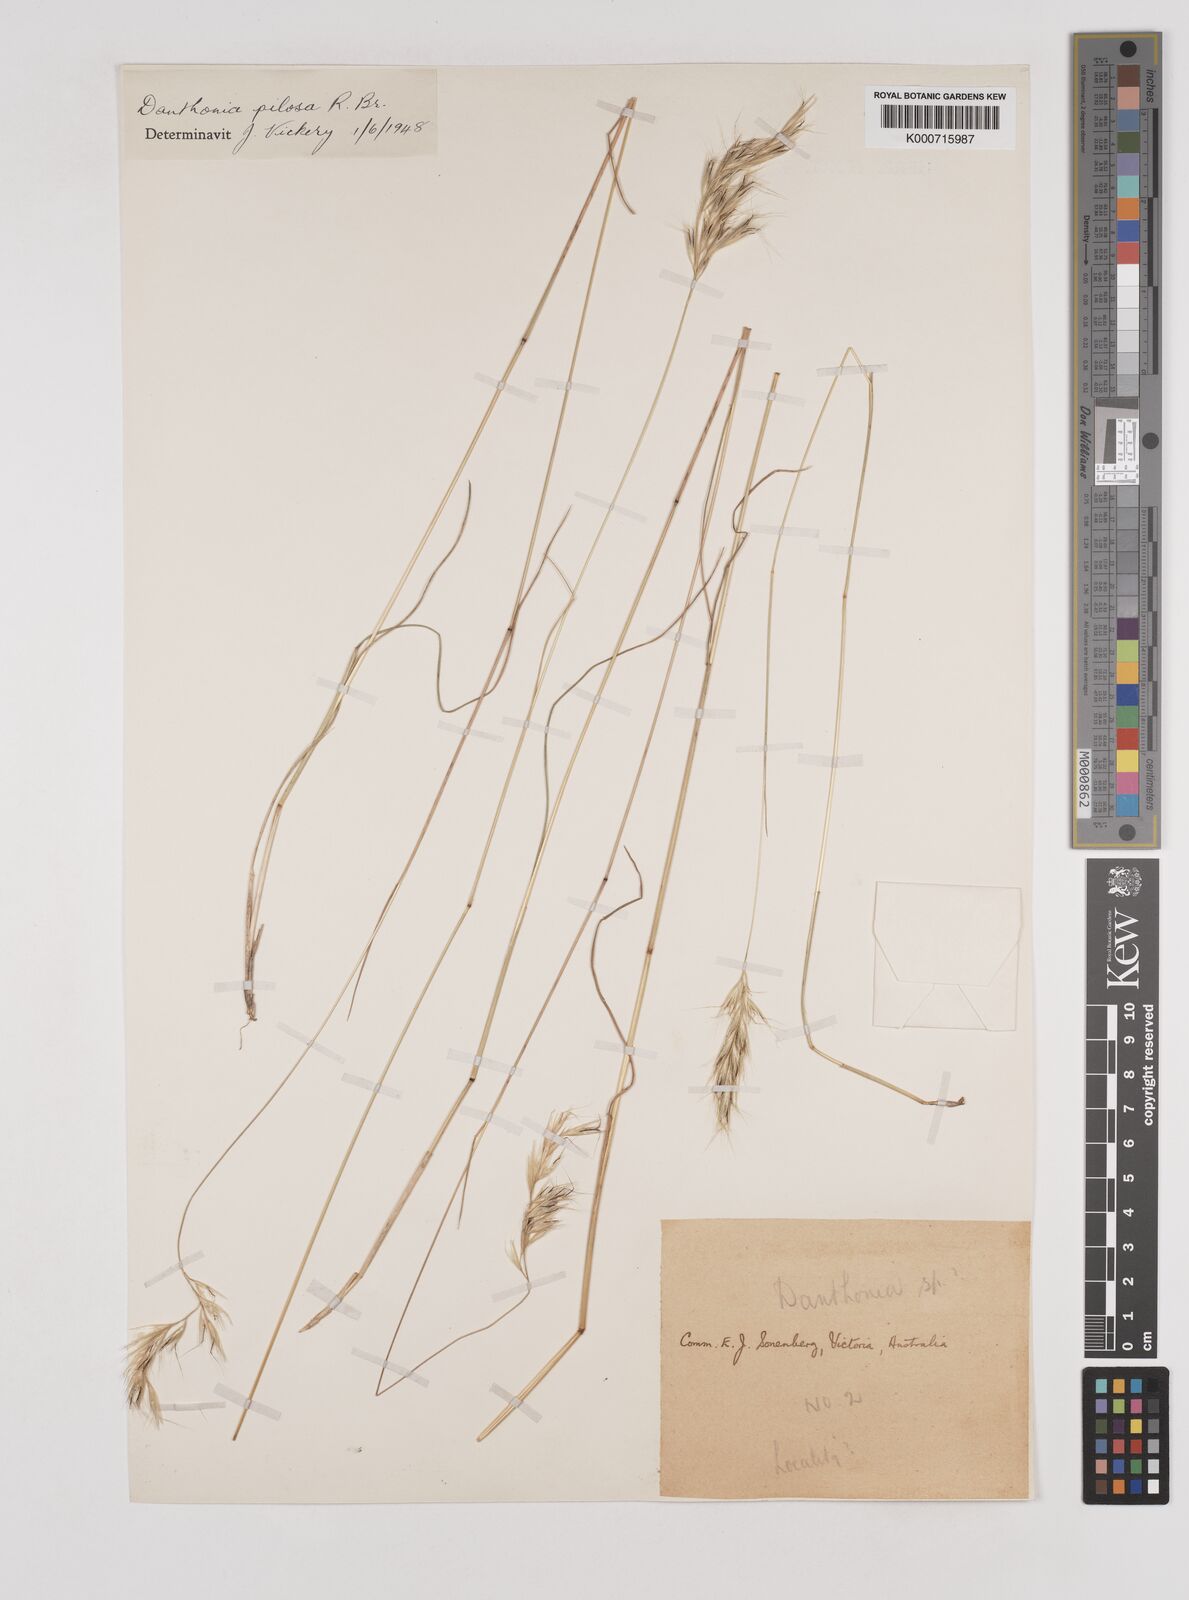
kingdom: Plantae
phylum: Tracheophyta
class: Liliopsida
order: Poales
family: Poaceae
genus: Rytidosperma
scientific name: Rytidosperma pilosum
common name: Hairy wallaby grass
